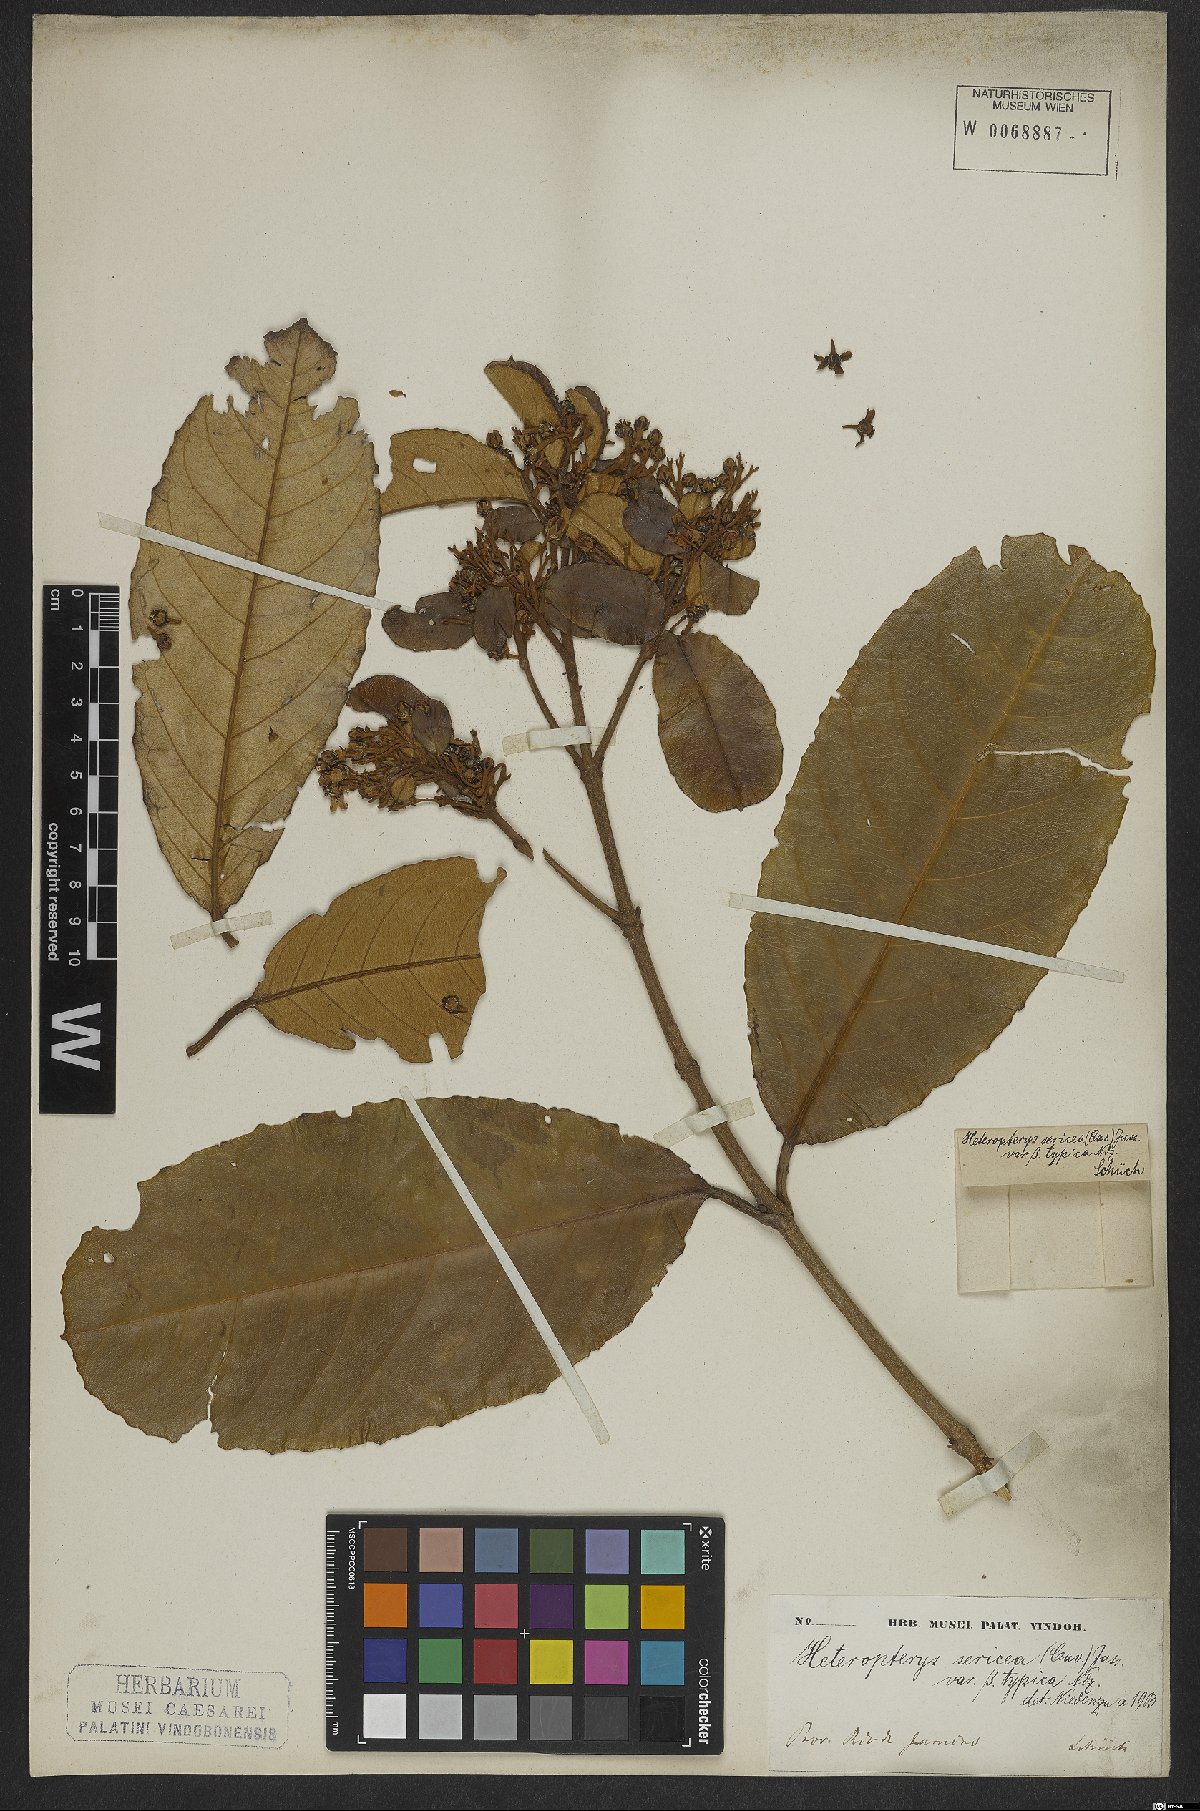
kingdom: Plantae
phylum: Tracheophyta
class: Magnoliopsida
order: Malpighiales
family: Malpighiaceae
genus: Heteropterys
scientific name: Heteropterys sericea
